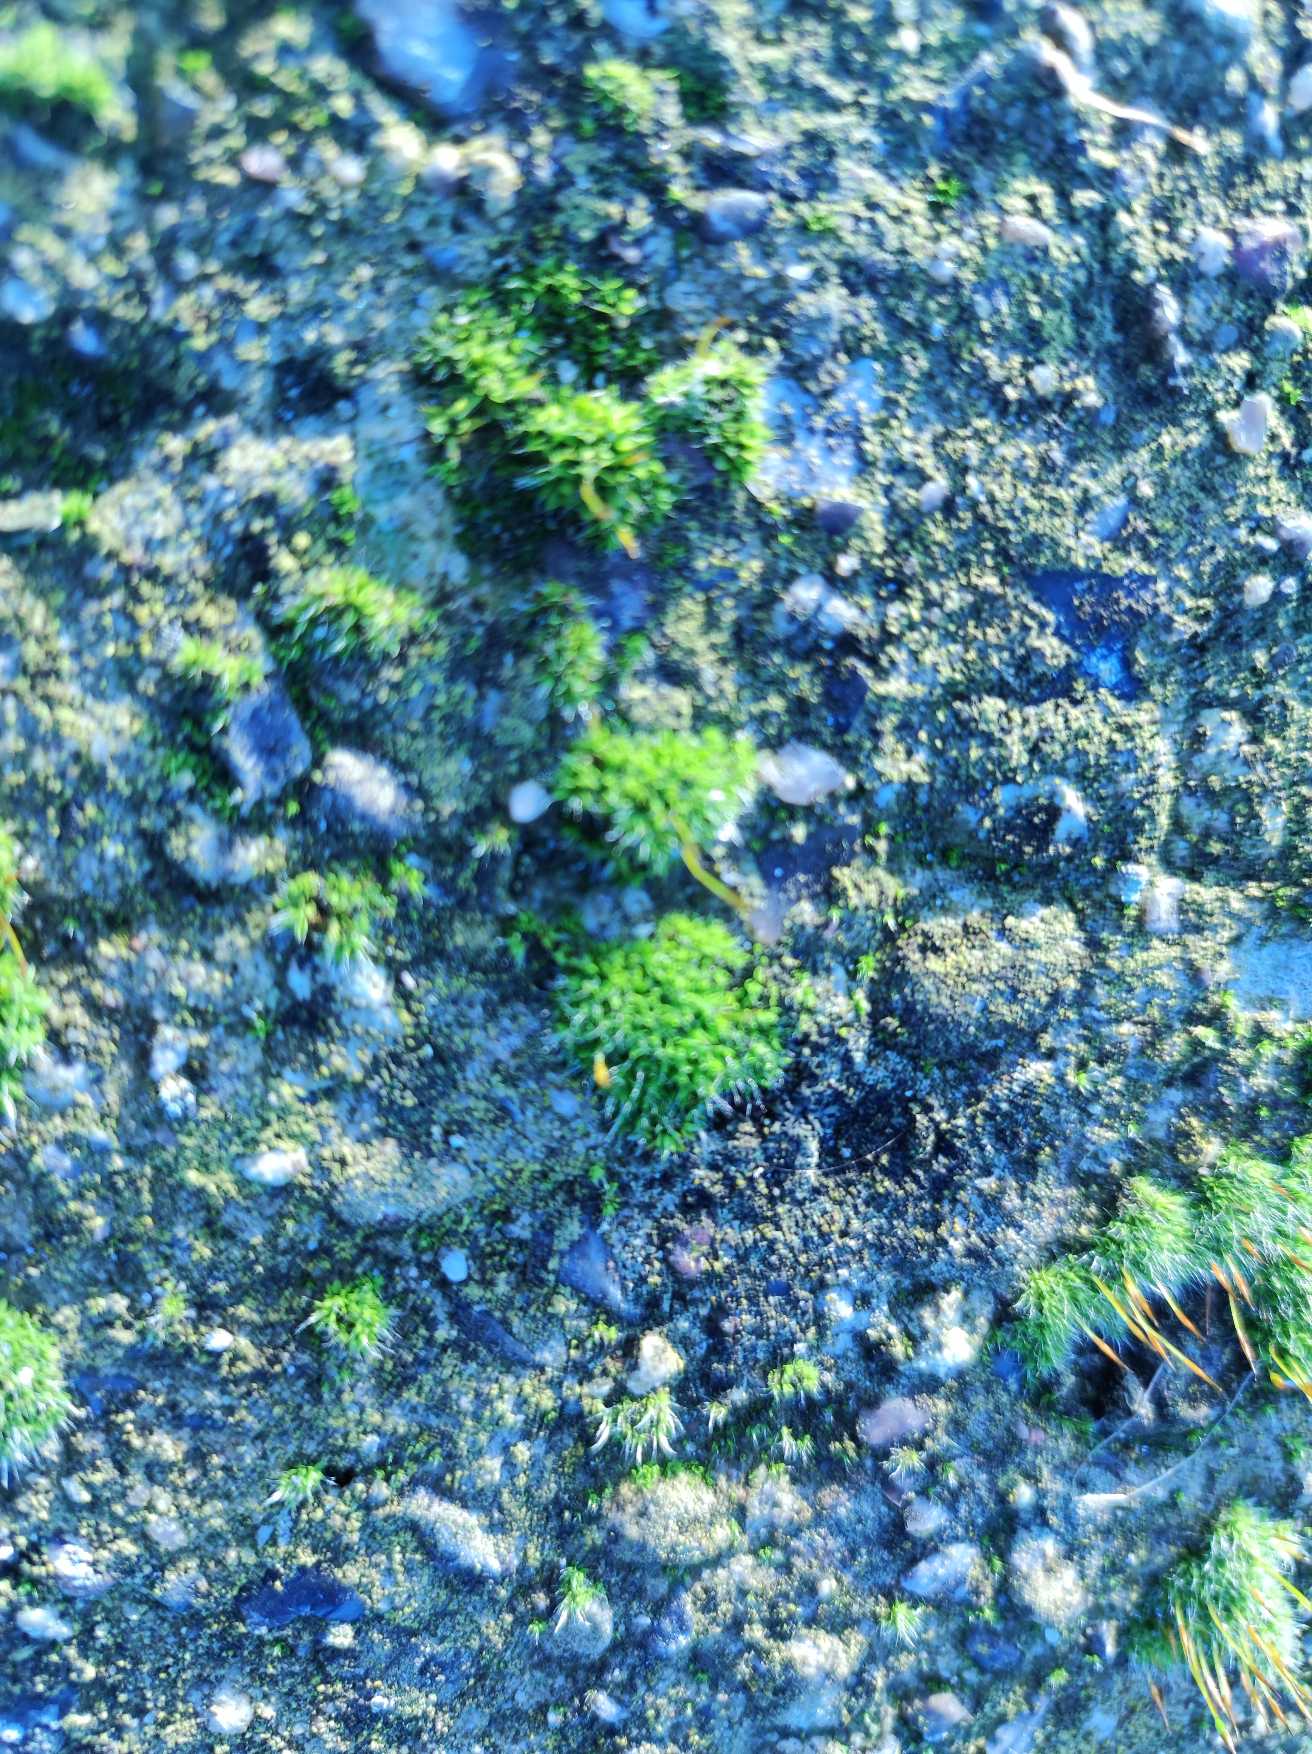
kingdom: Plantae
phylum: Bryophyta
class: Bryopsida
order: Pottiales
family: Pottiaceae
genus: Tortula
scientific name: Tortula muralis
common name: Mur-snotand
